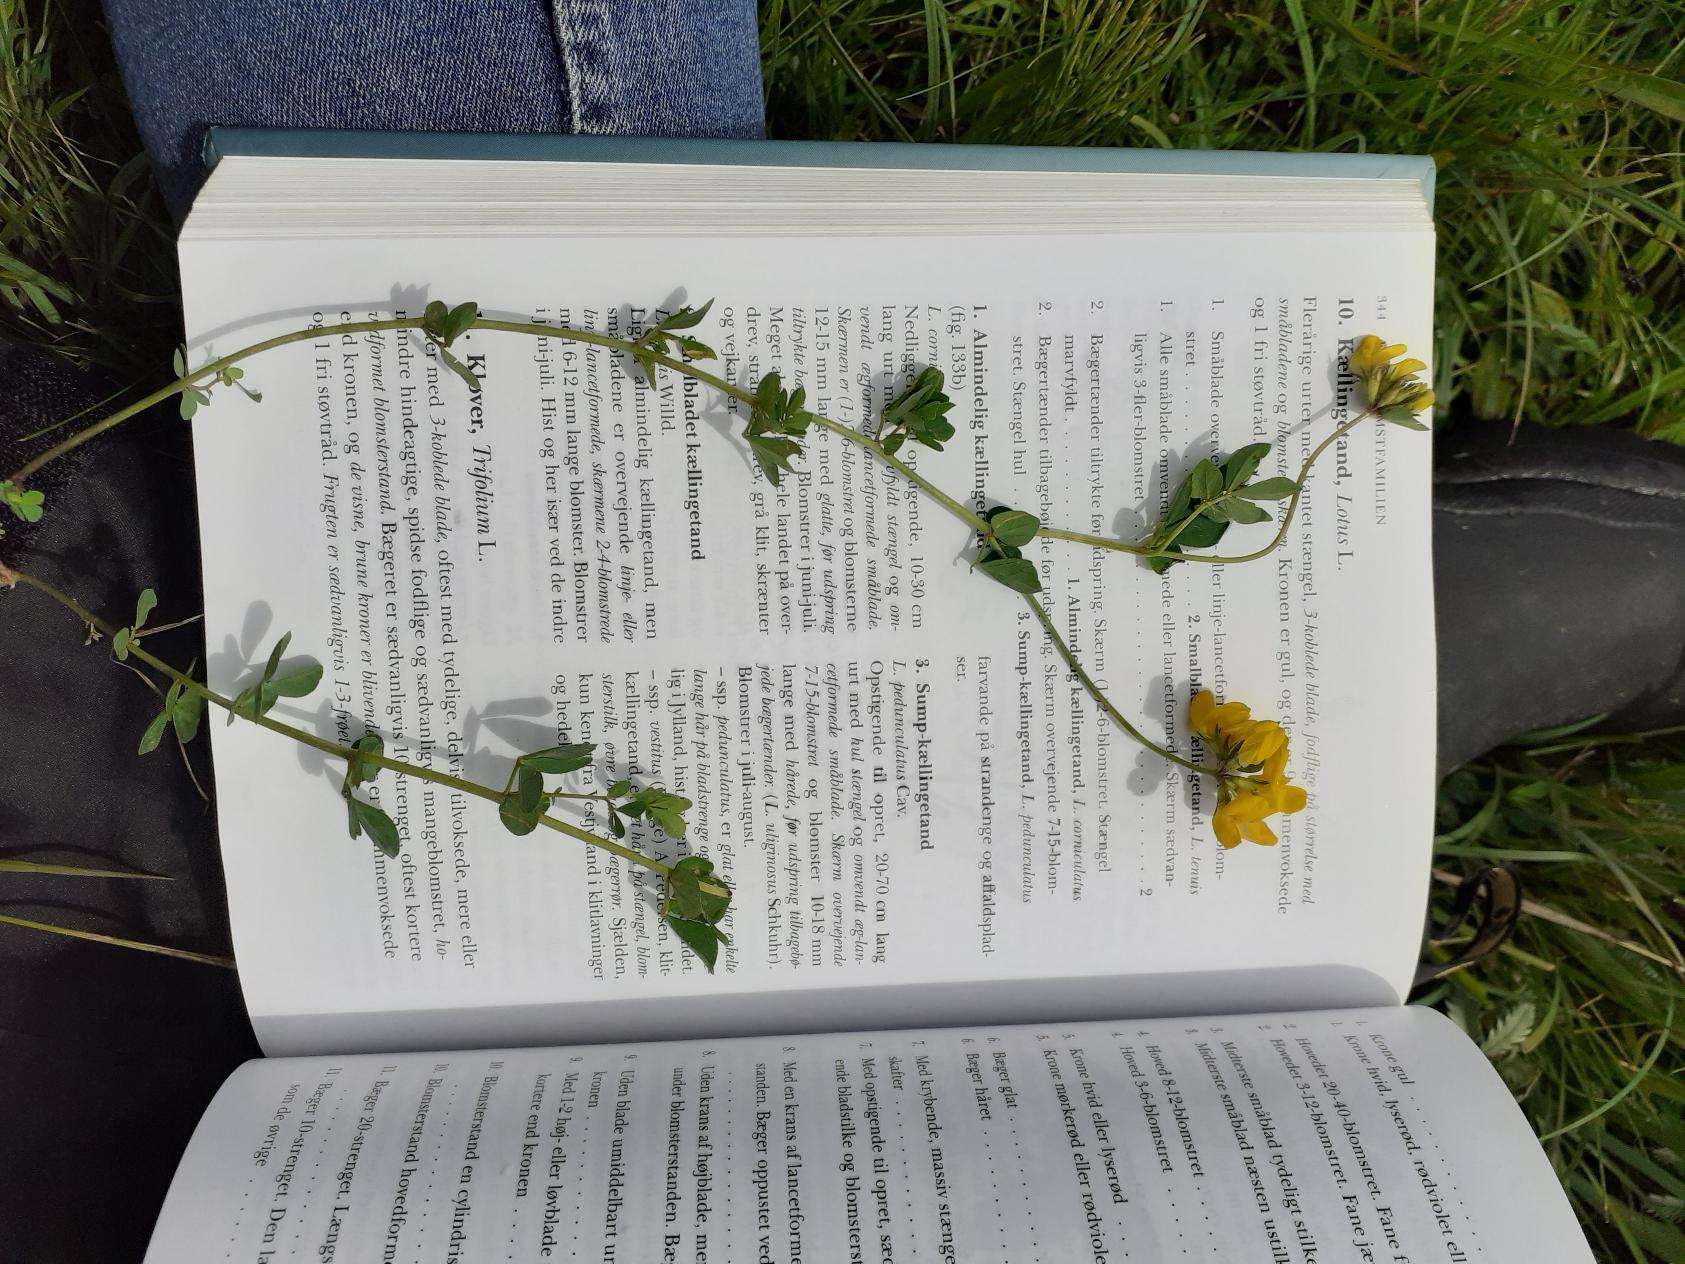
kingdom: Plantae
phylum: Tracheophyta
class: Magnoliopsida
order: Fabales
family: Fabaceae
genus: Lotus
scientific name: Lotus corniculatus
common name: Almindelig kællingetand
